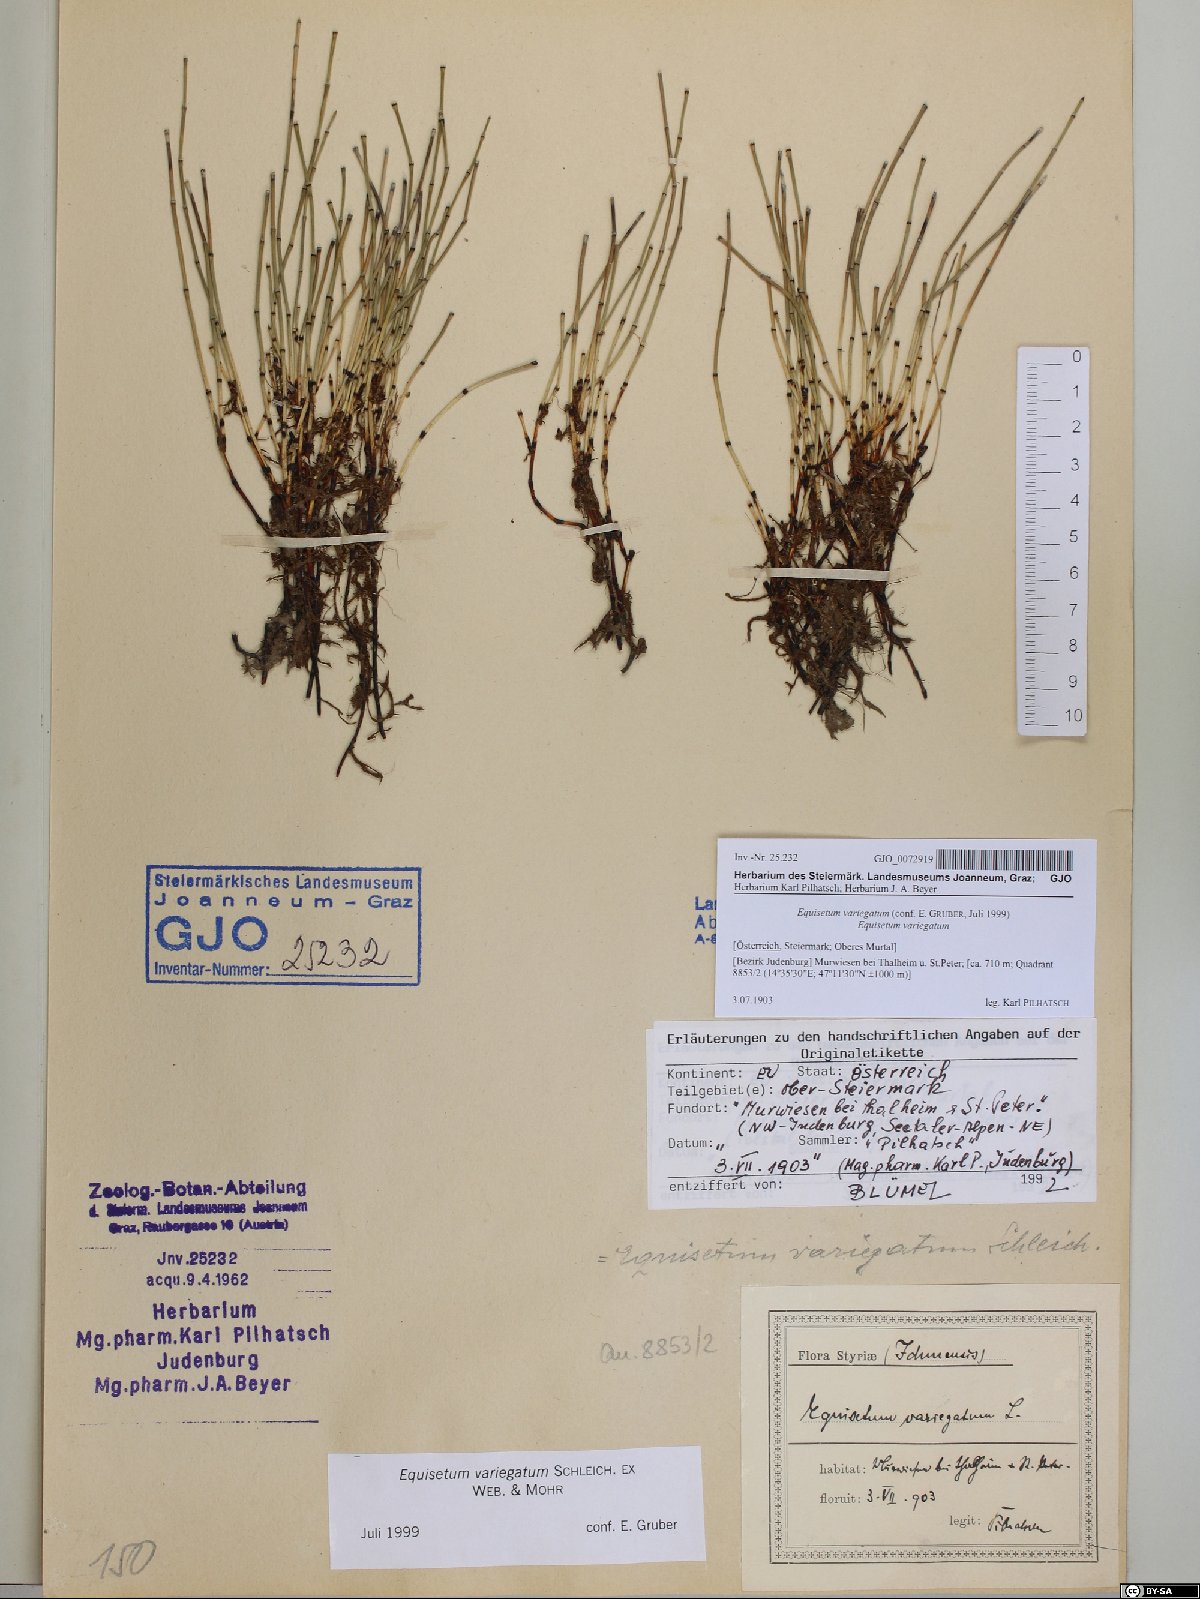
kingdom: Plantae
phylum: Tracheophyta
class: Polypodiopsida
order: Equisetales
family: Equisetaceae
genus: Equisetum
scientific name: Equisetum variegatum
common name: Variegated horsetail
